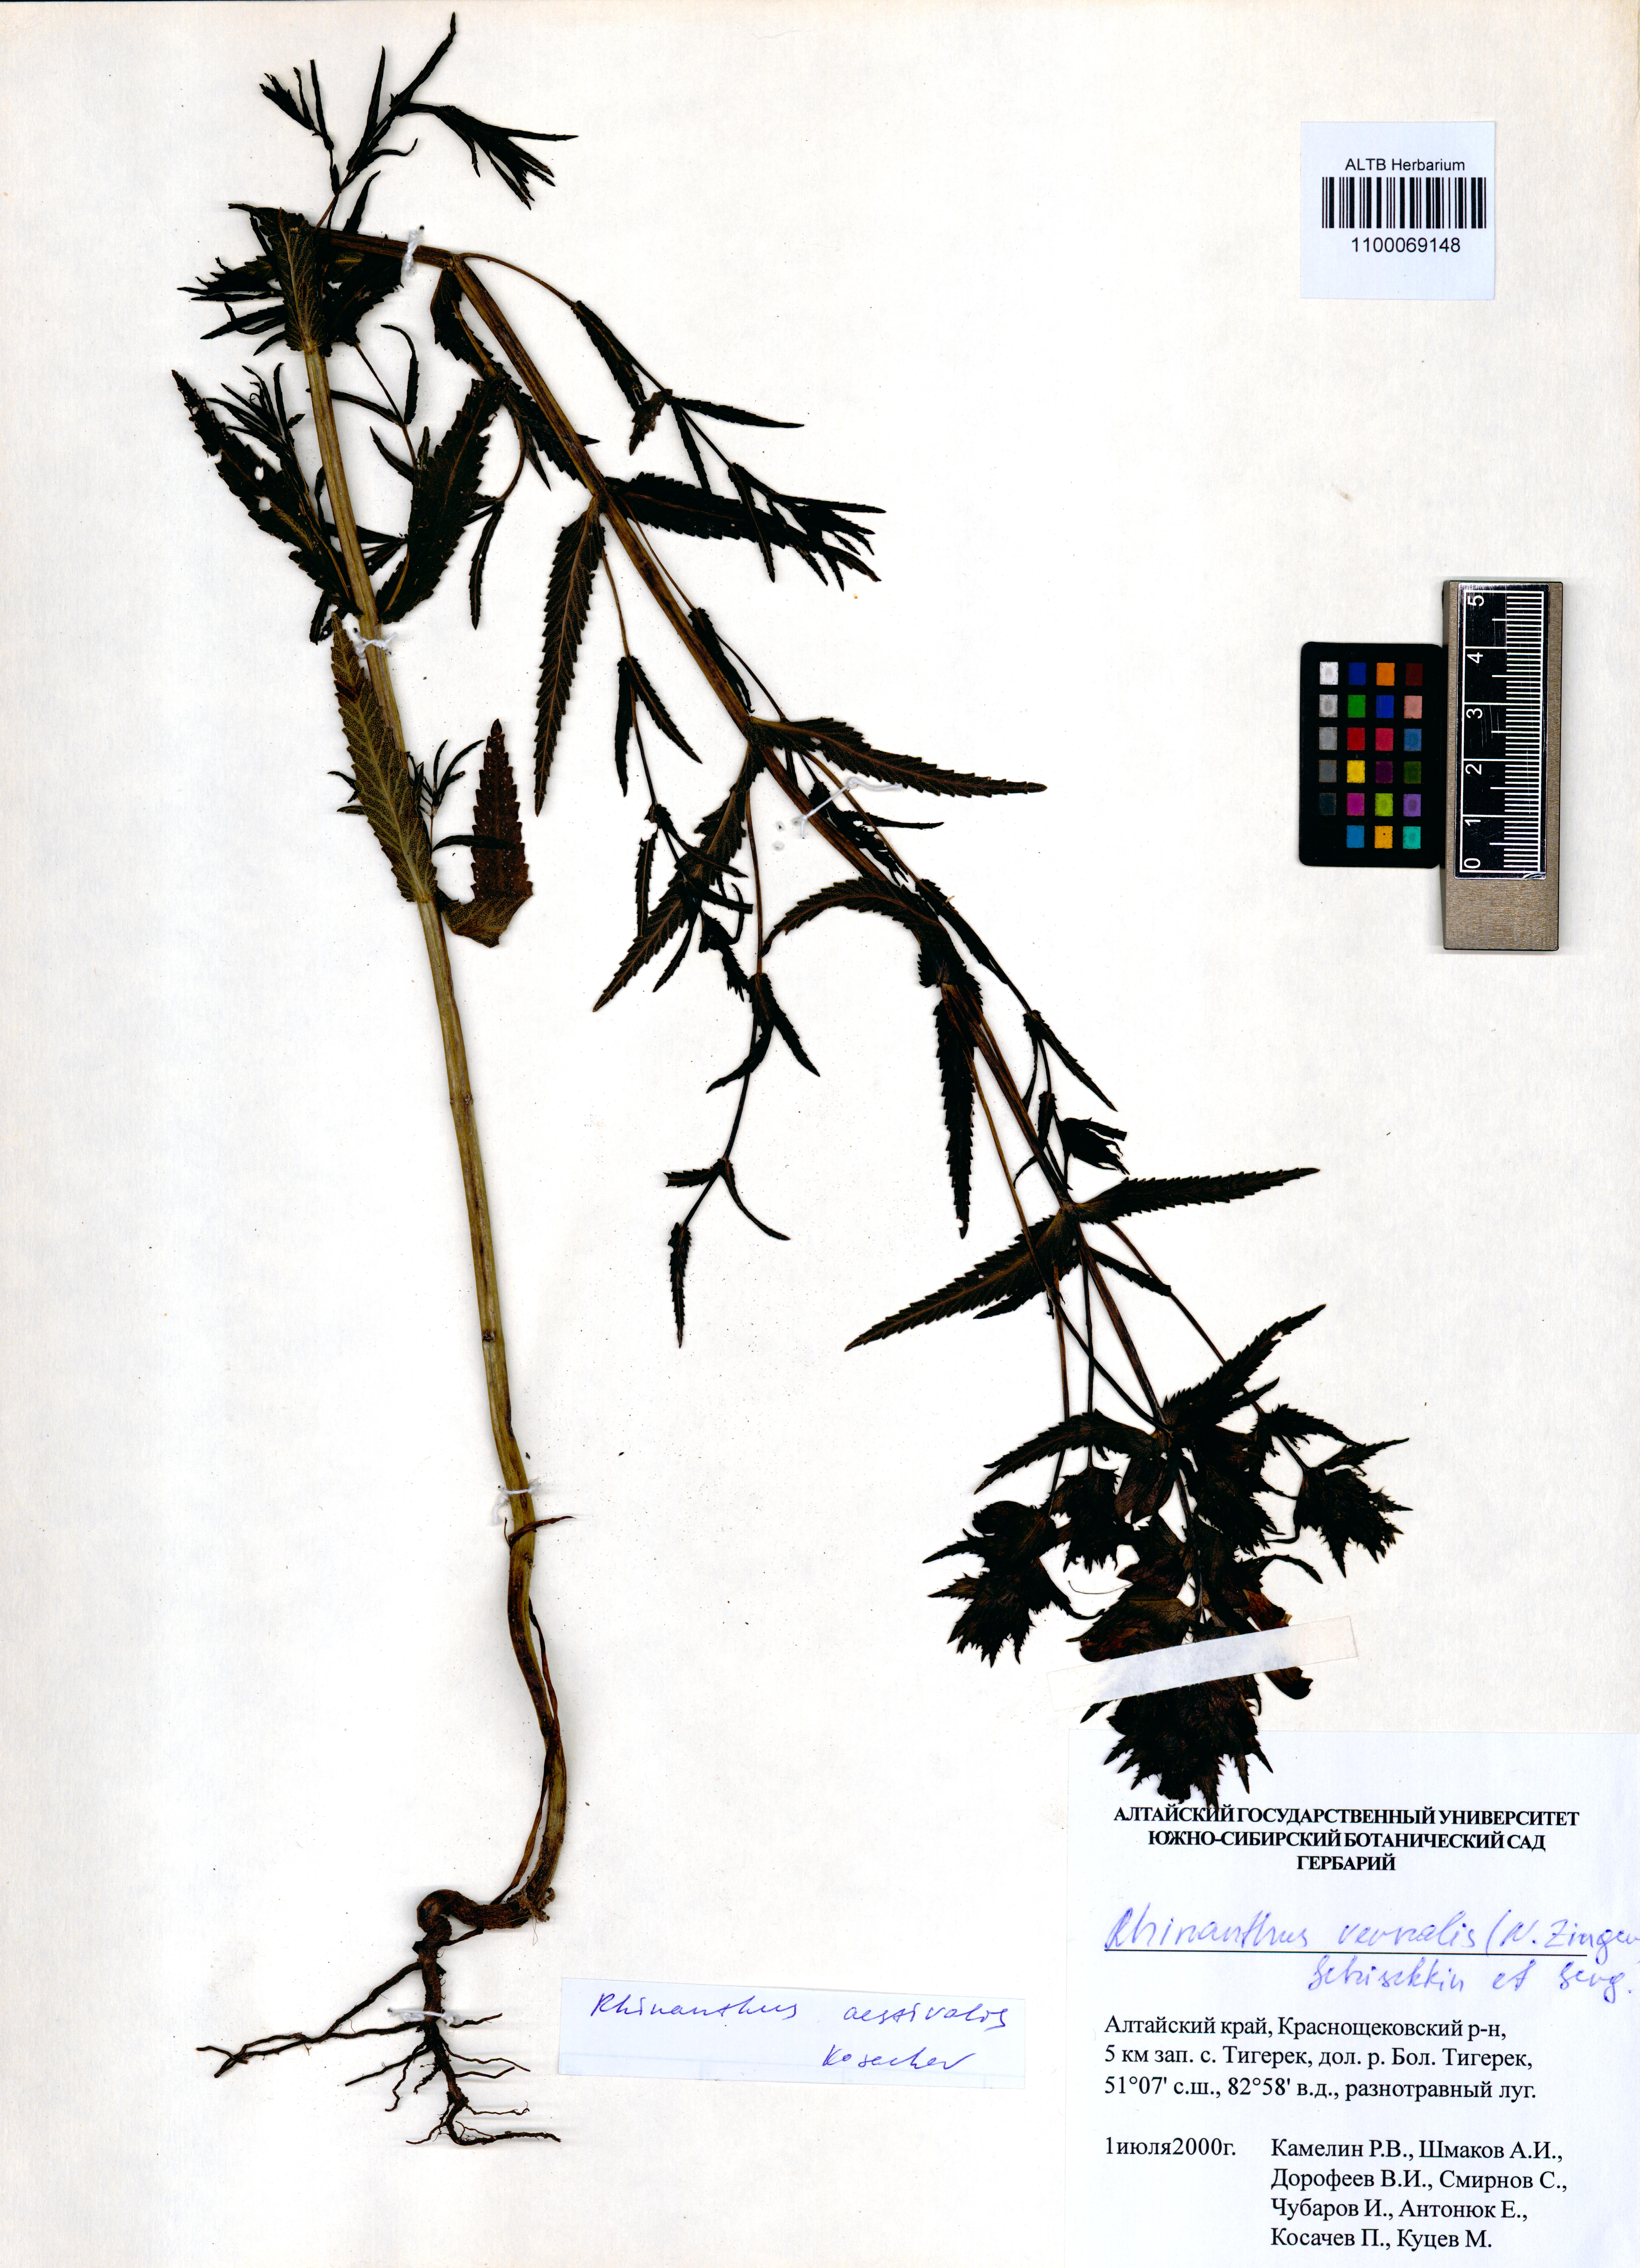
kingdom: Plantae
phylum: Tracheophyta
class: Magnoliopsida
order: Lamiales
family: Orobanchaceae
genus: Rhinanthus
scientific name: Rhinanthus serotinus
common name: Late-flowering yellow rattle
